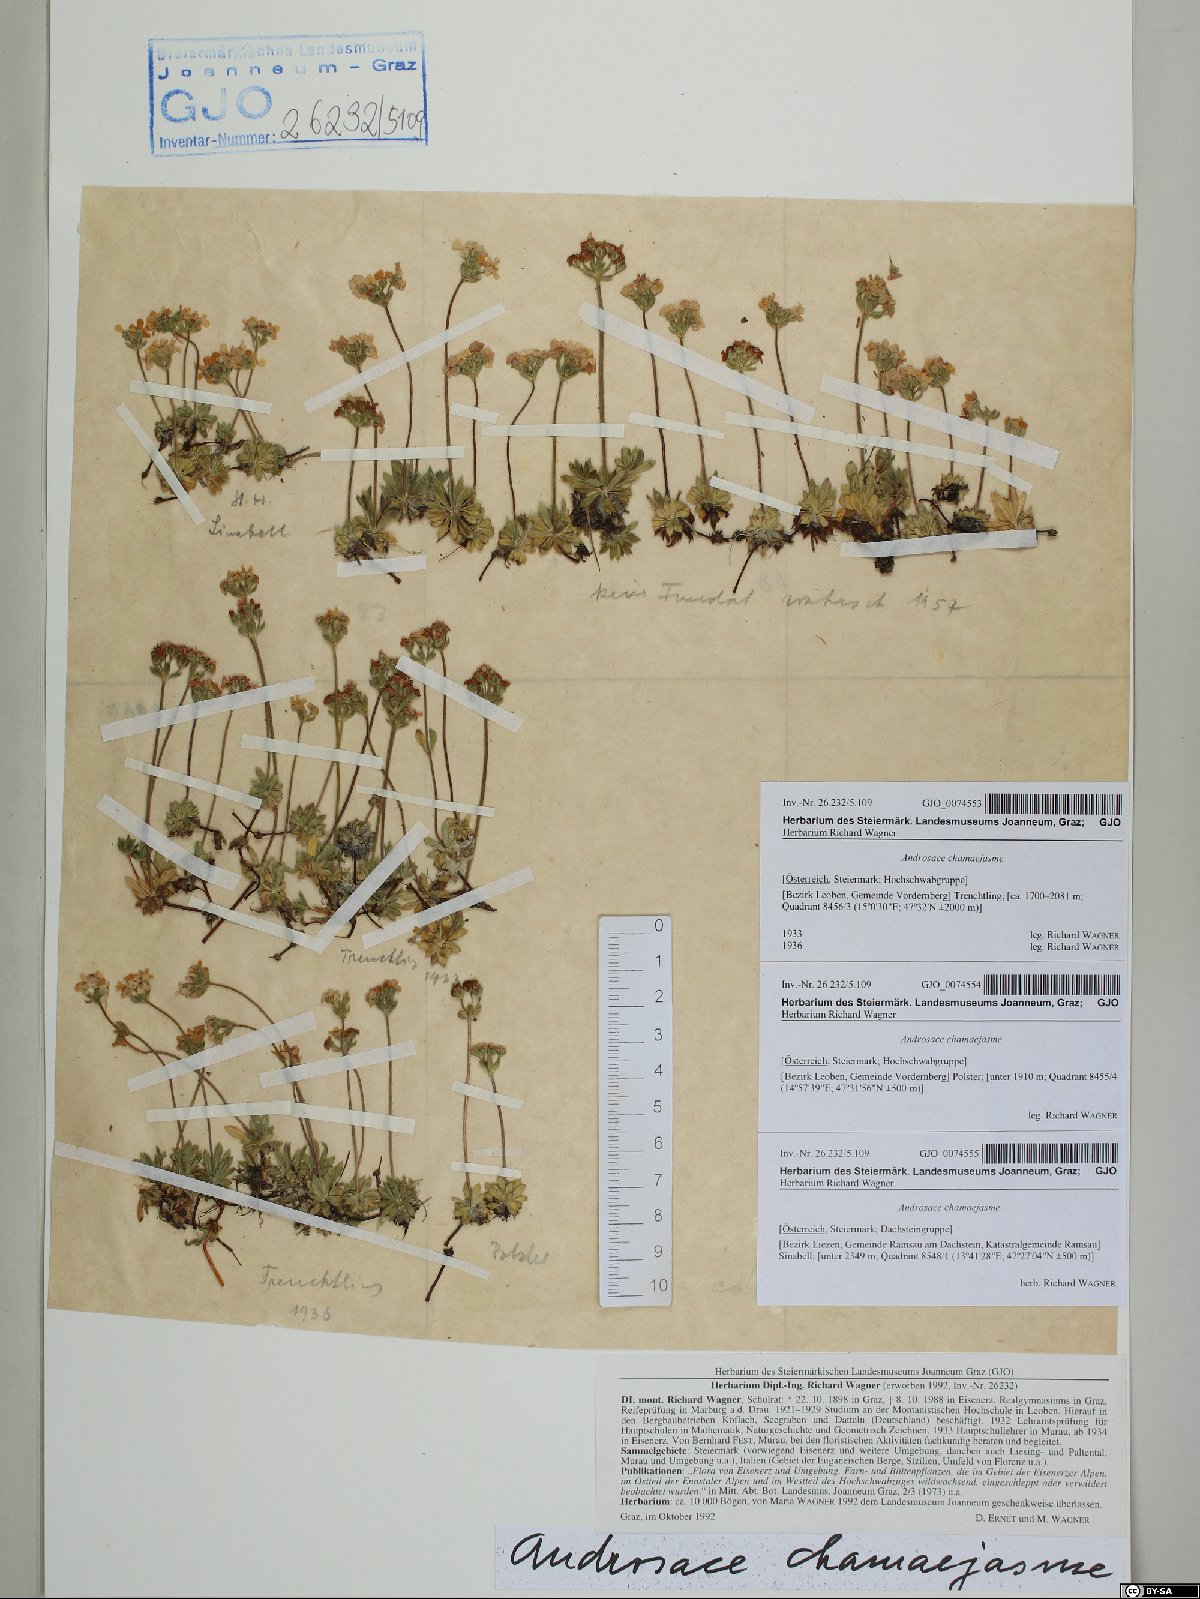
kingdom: Plantae
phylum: Tracheophyta
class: Magnoliopsida
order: Ericales
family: Primulaceae
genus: Androsace
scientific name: Androsace chamaejasme
